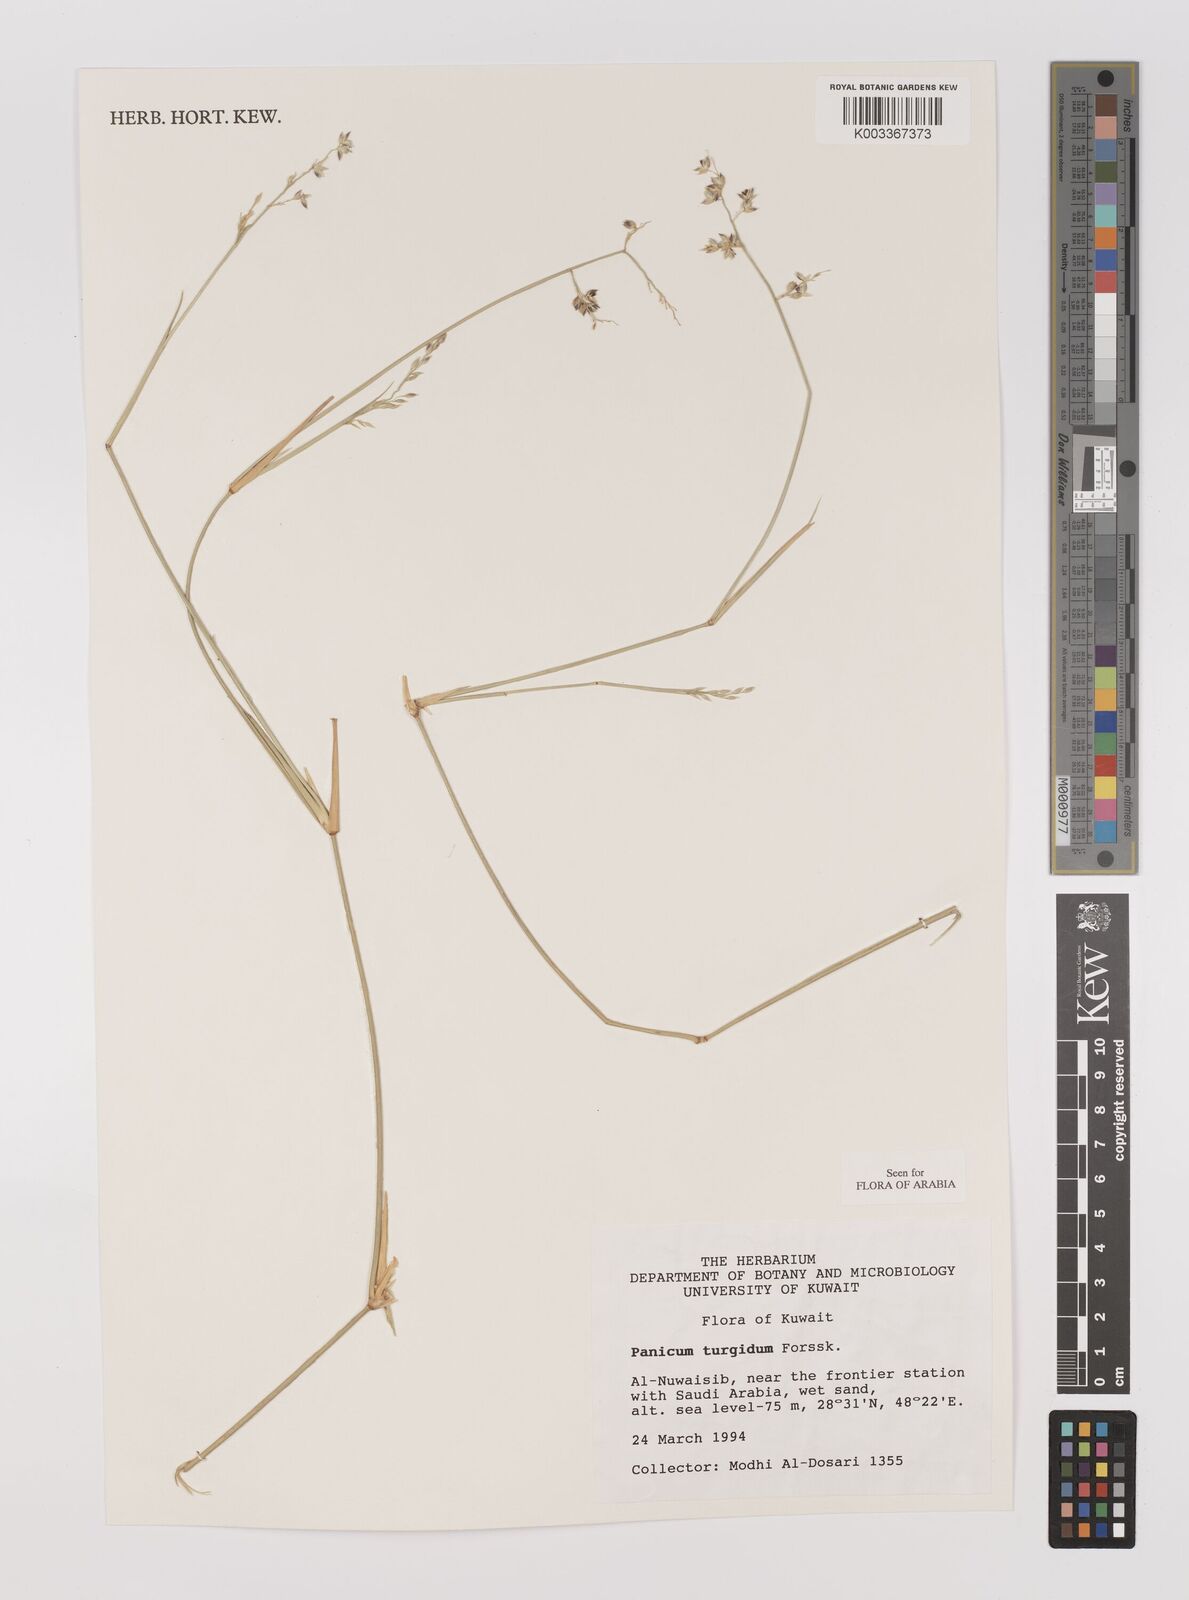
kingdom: Plantae
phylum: Tracheophyta
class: Liliopsida
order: Poales
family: Poaceae
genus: Panicum
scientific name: Panicum turgidum
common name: Desert grass
